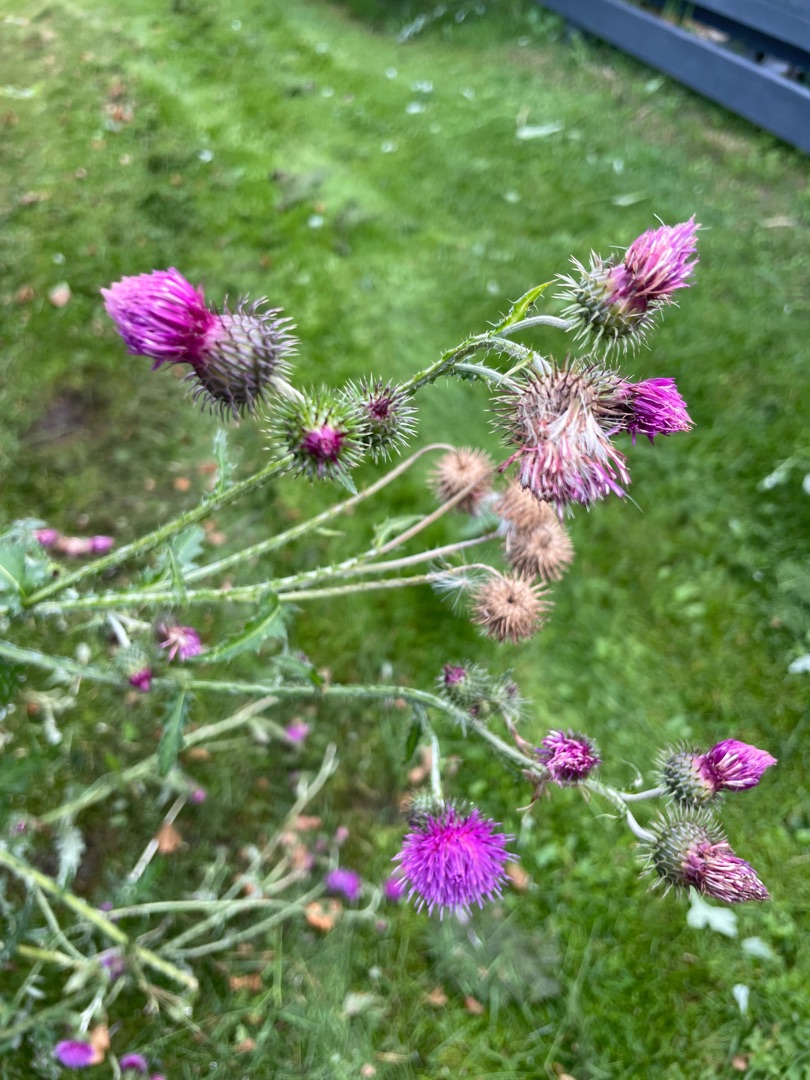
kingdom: Plantae
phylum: Tracheophyta
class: Magnoliopsida
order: Asterales
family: Asteraceae
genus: Carduus
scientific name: Carduus crispus
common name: Kruset tidsel
